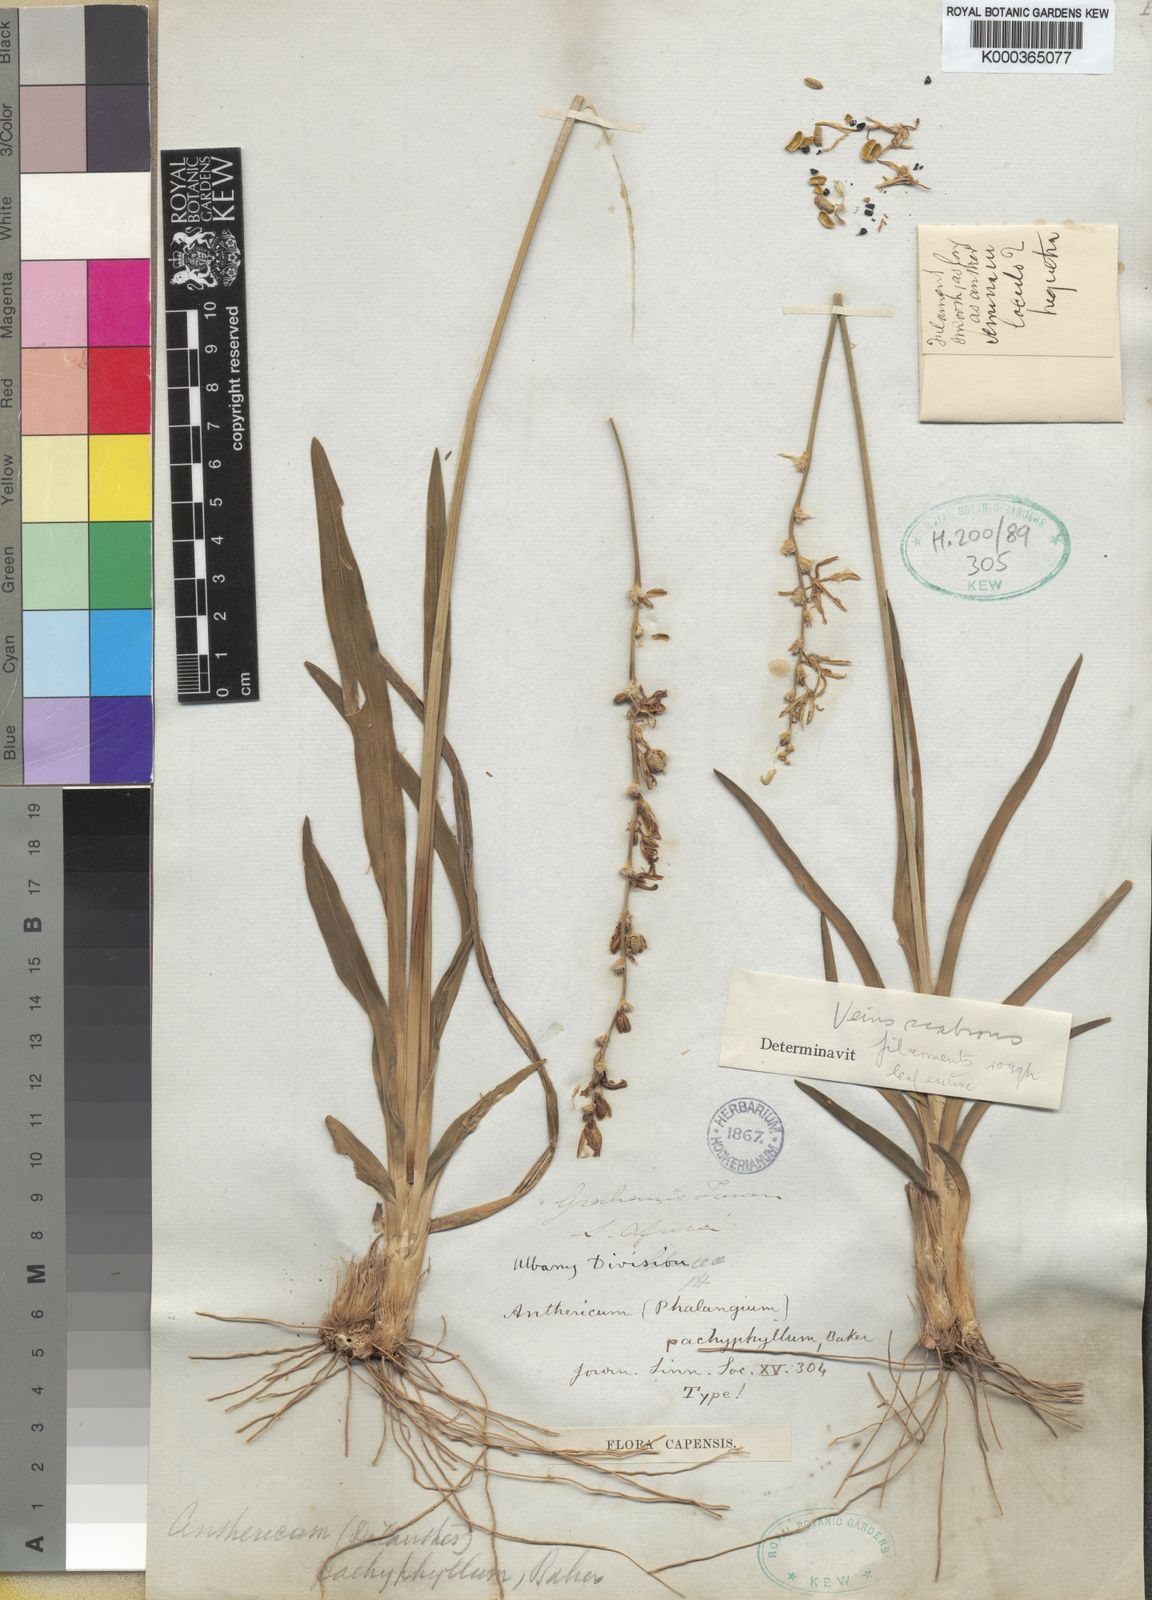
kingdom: Plantae
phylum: Tracheophyta
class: Liliopsida
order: Asparagales
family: Asparagaceae
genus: Chlorophytum
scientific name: Chlorophytum cooperi
